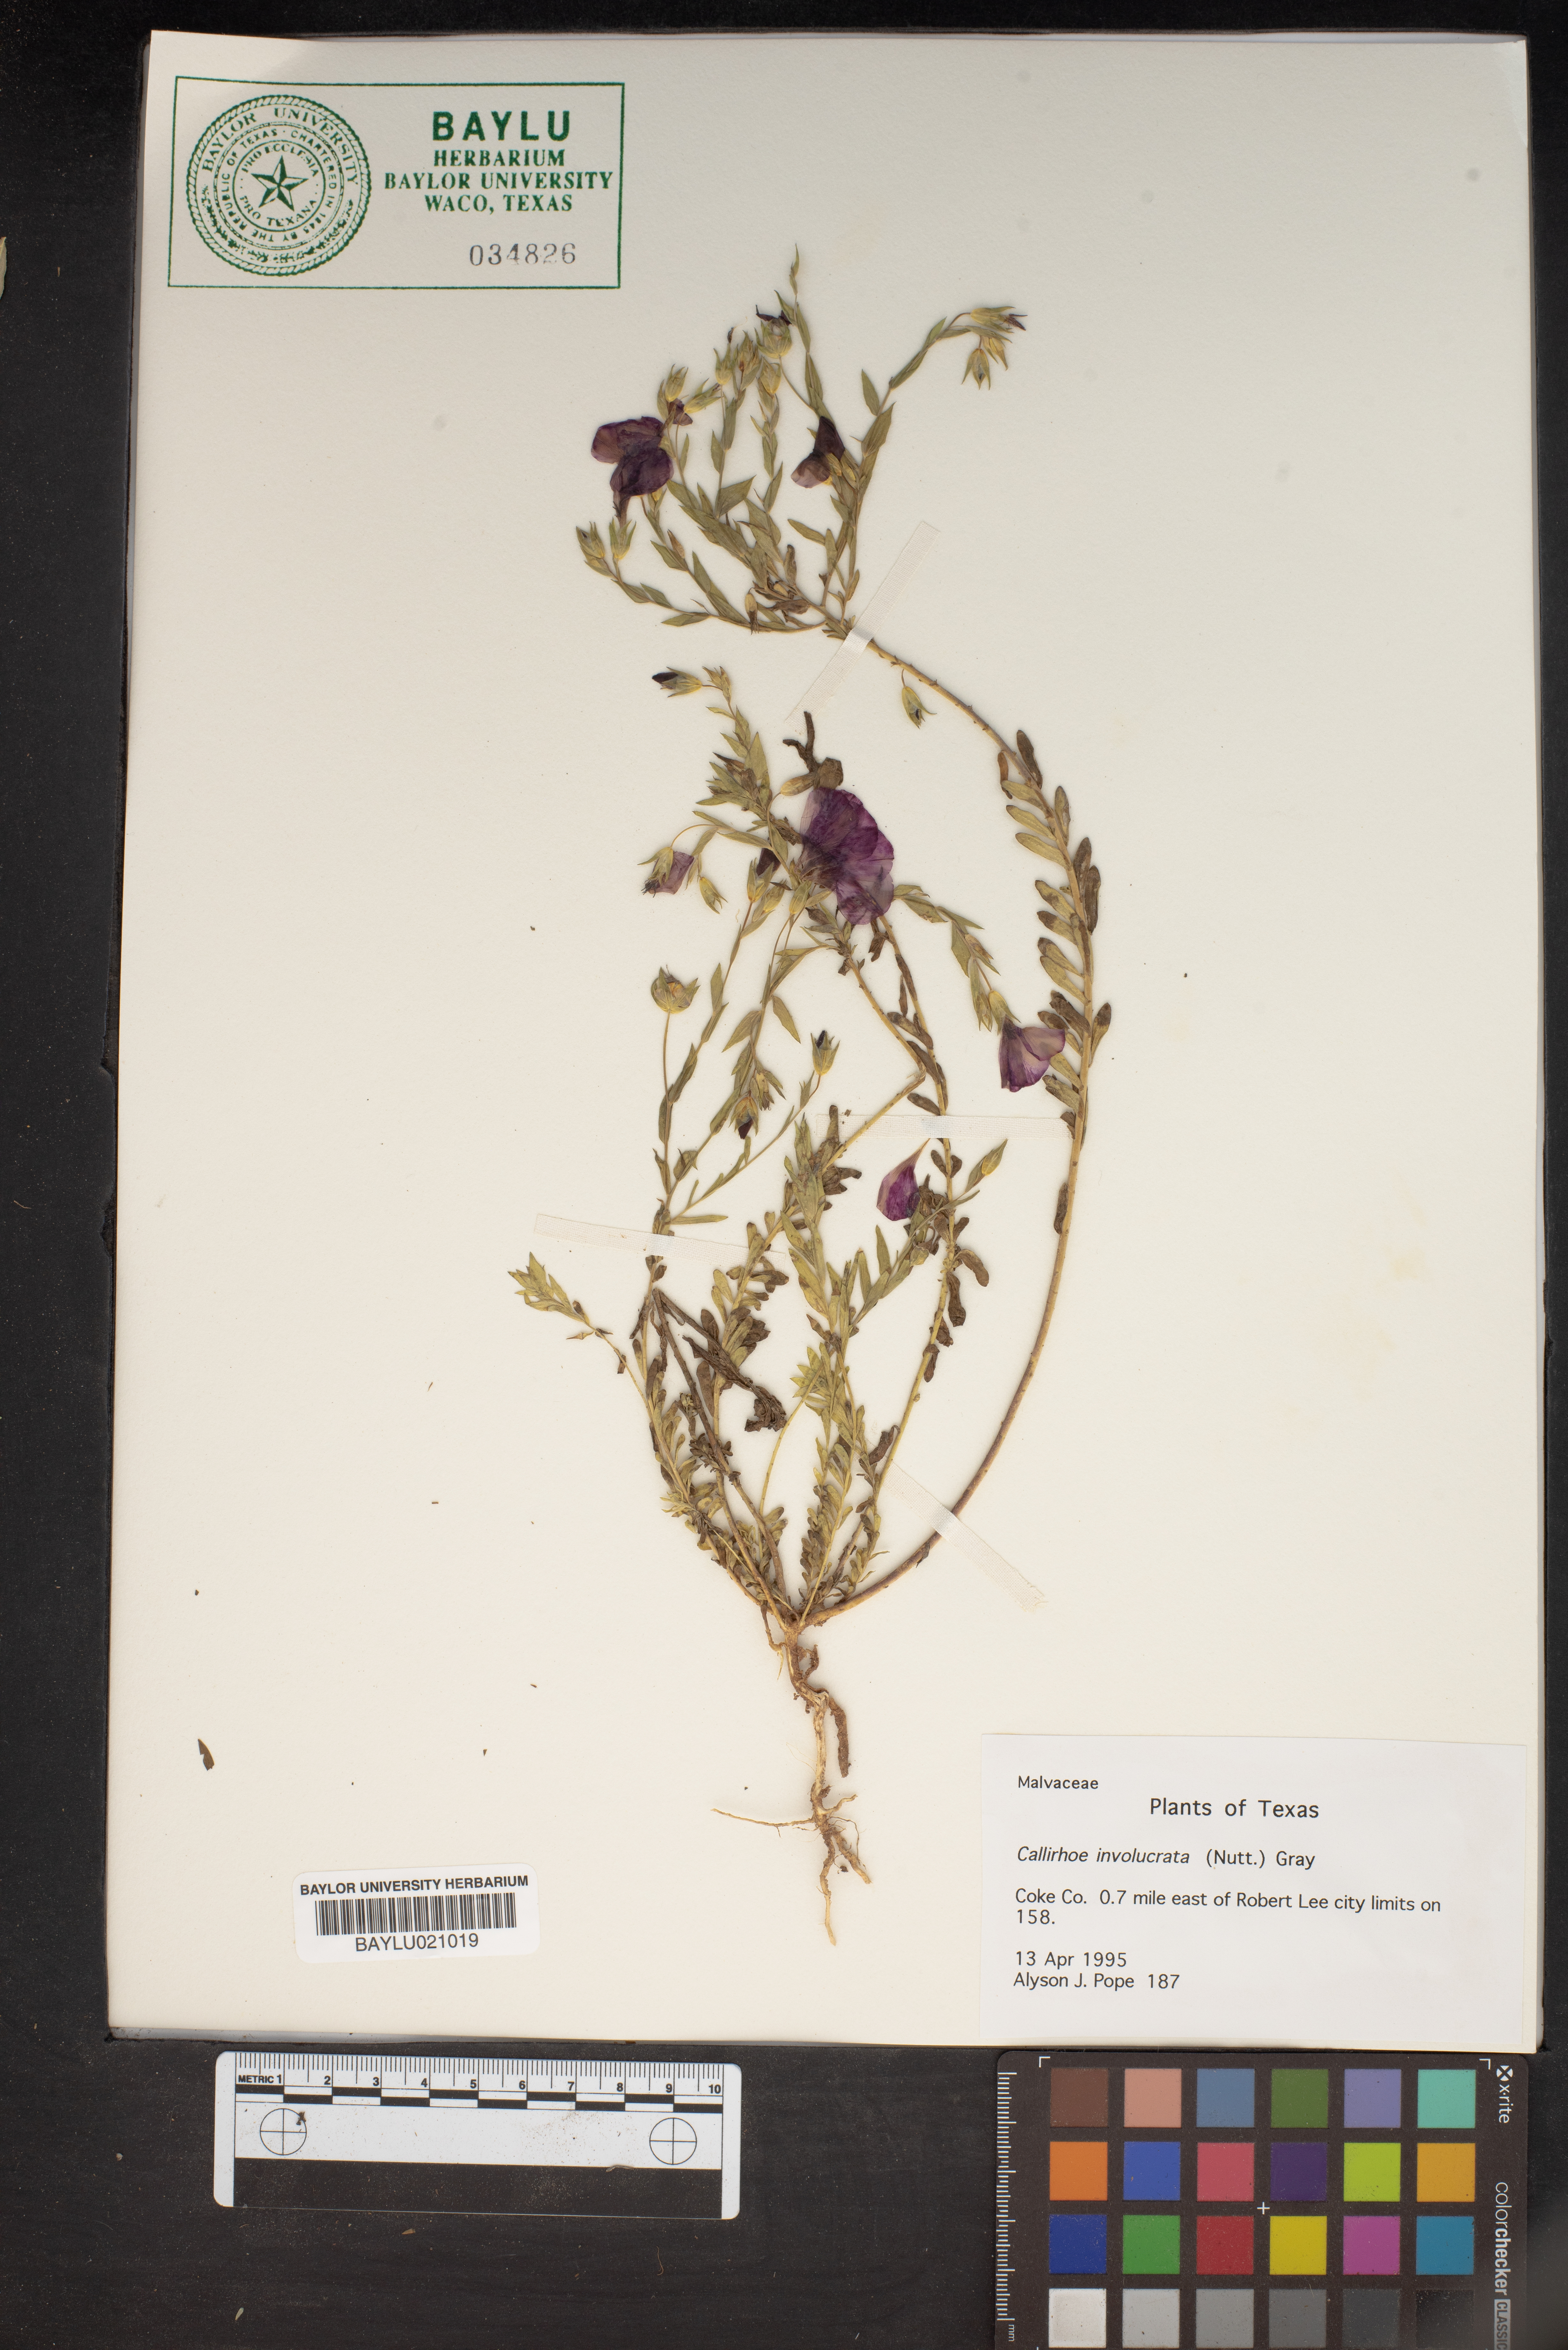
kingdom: Plantae
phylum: Tracheophyta
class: Magnoliopsida
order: Malvales
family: Malvaceae
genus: Callirhoe
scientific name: Callirhoe involucrata
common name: Purple poppy-mallow
